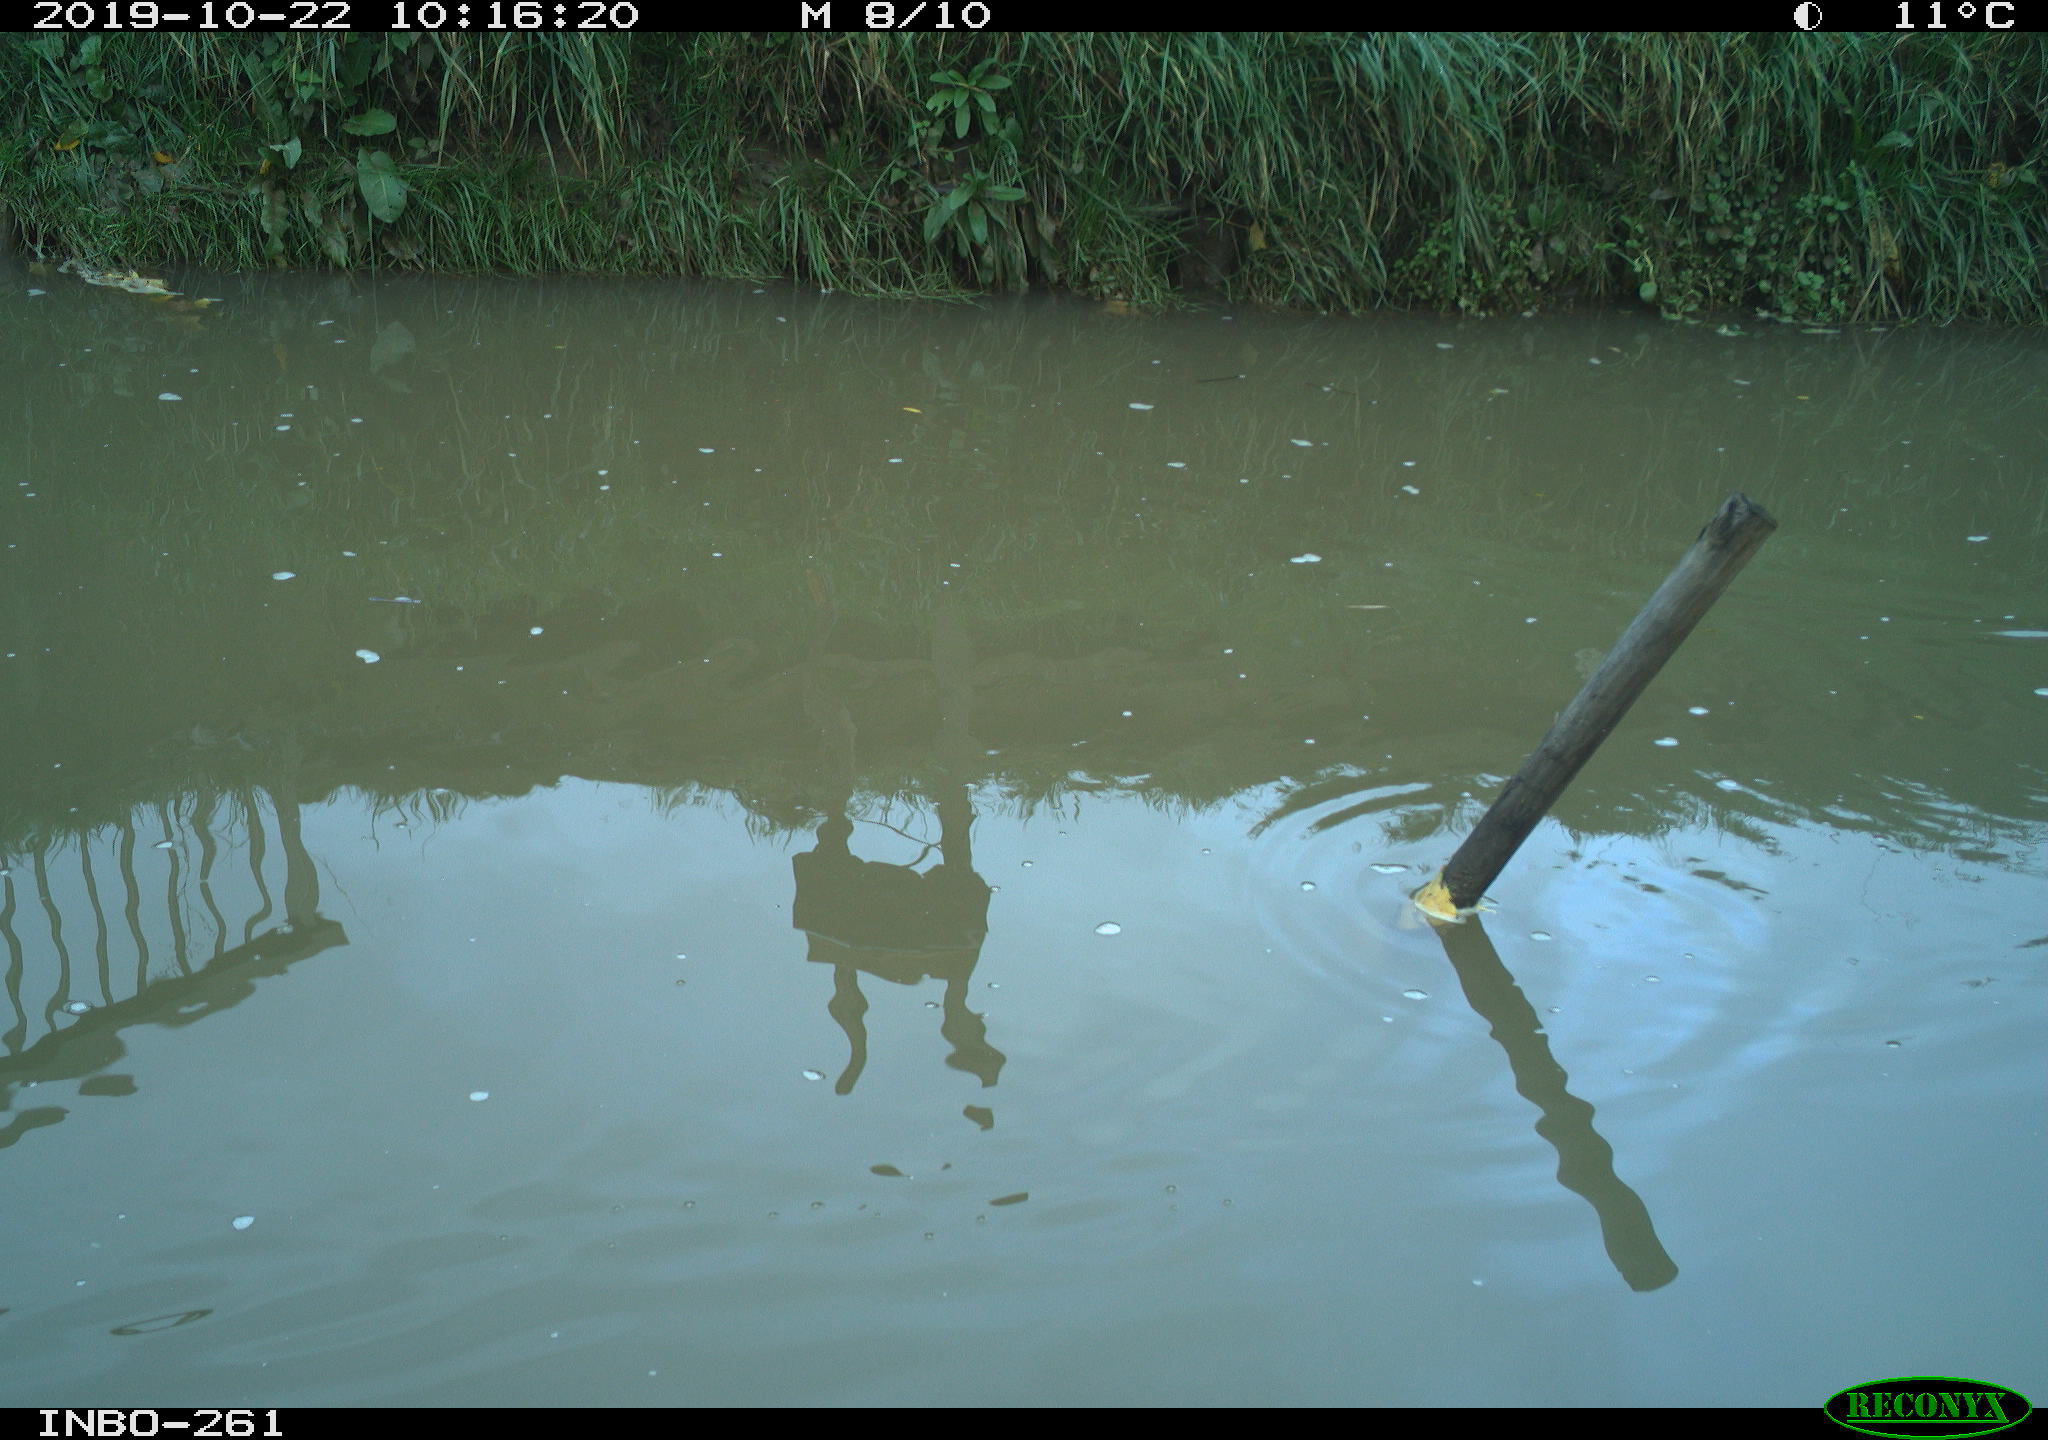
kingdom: Animalia
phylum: Chordata
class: Aves
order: Gruiformes
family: Rallidae
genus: Gallinula
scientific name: Gallinula chloropus
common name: Common moorhen
